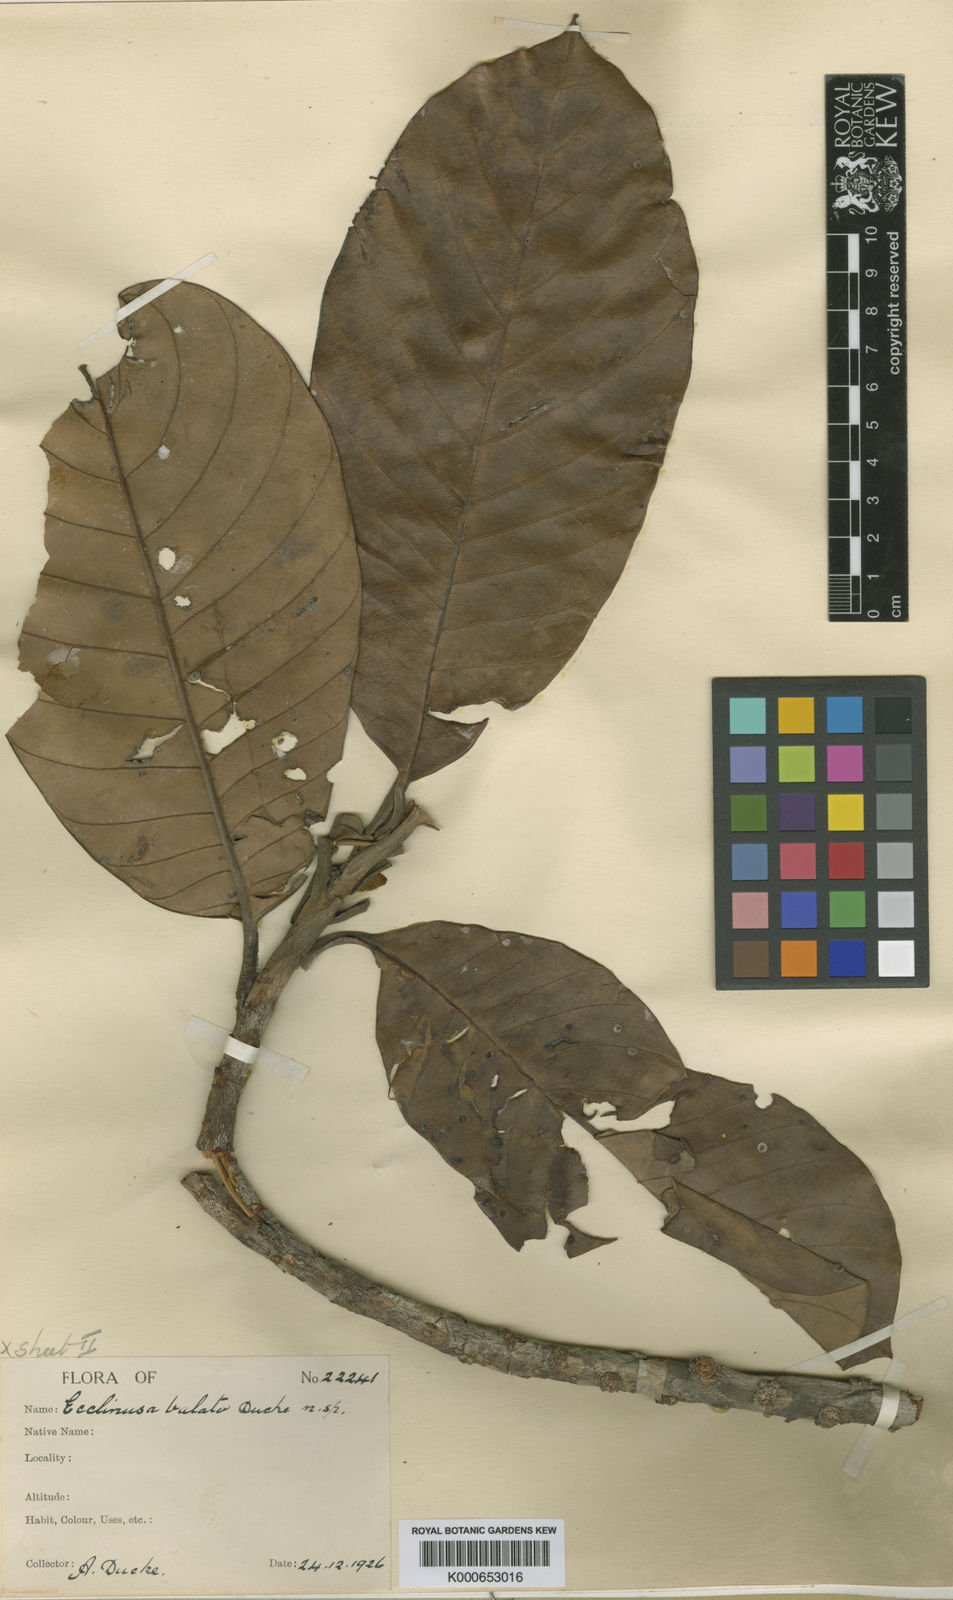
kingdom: Plantae
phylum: Tracheophyta
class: Magnoliopsida
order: Ericales
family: Sapotaceae
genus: Chrysophyllum
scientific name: Chrysophyllum sanguinolentum
